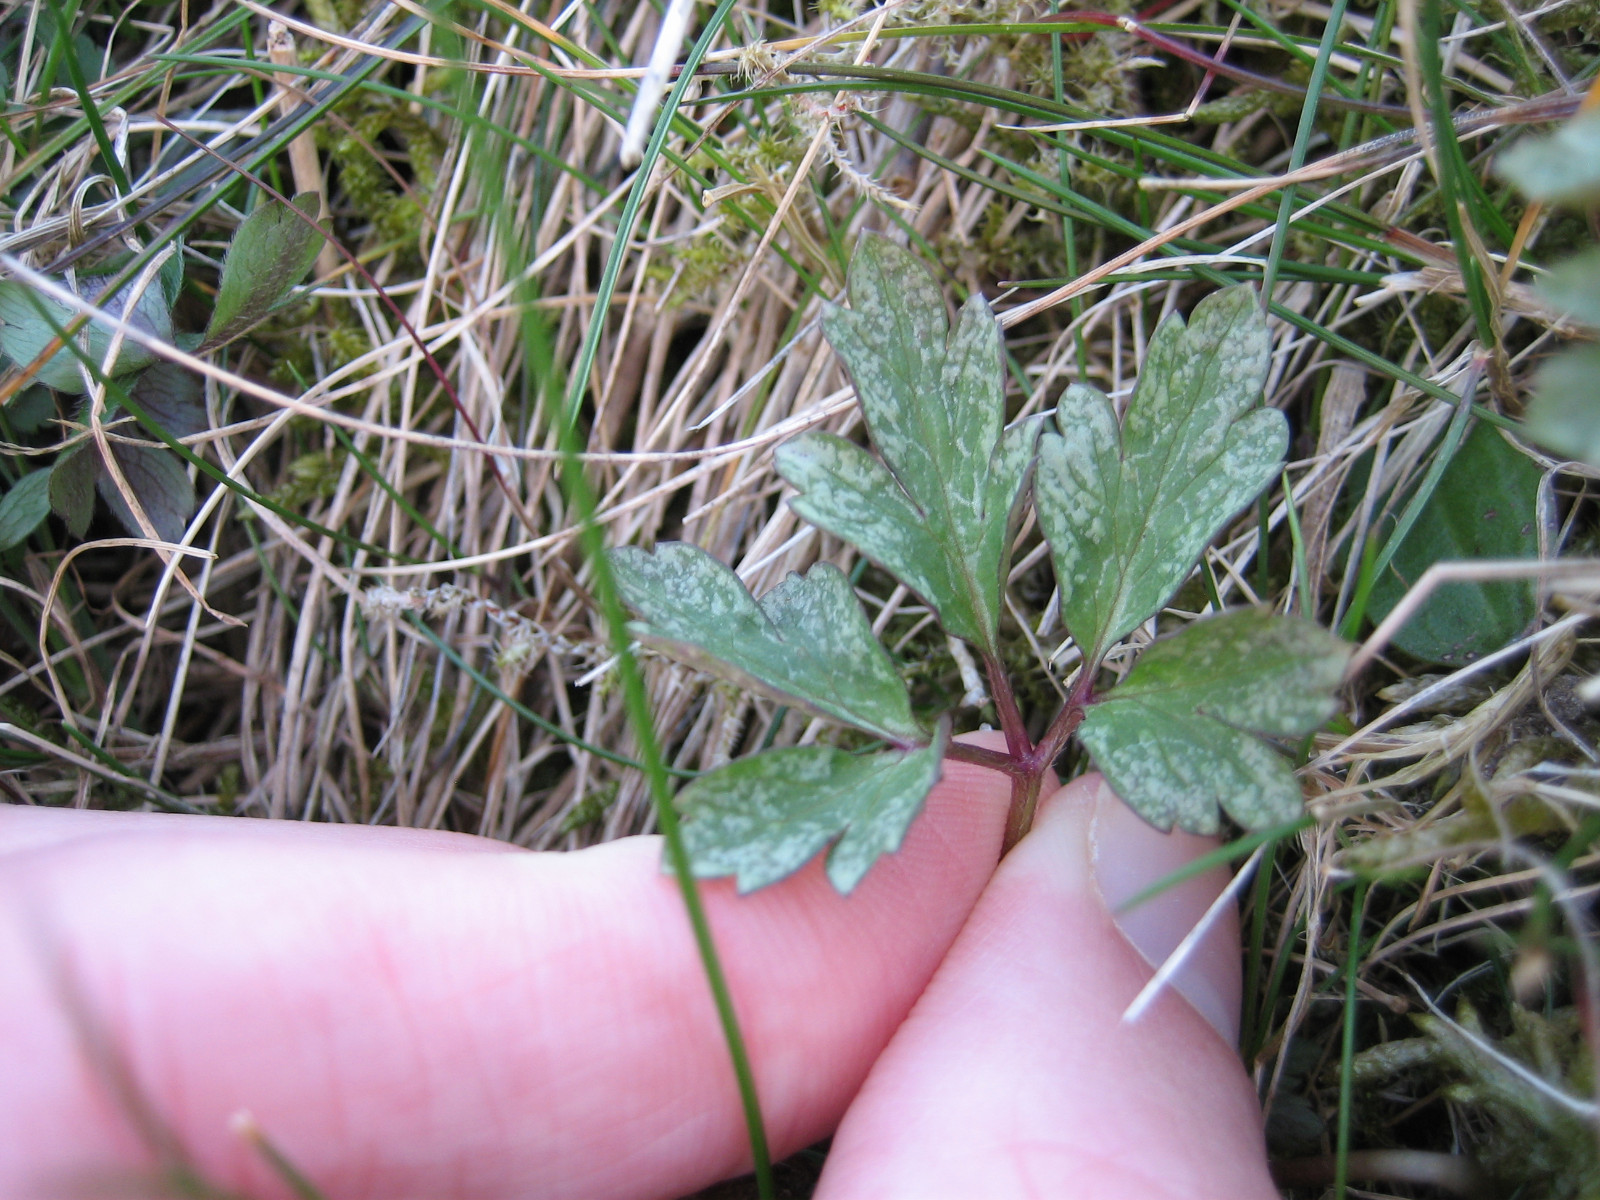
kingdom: Fungi
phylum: Basidiomycota
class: Pucciniomycetes
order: Pucciniales
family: Tranzscheliaceae
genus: Tranzschelia
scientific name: Tranzschelia anemones
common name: anemone-knæksporerust
